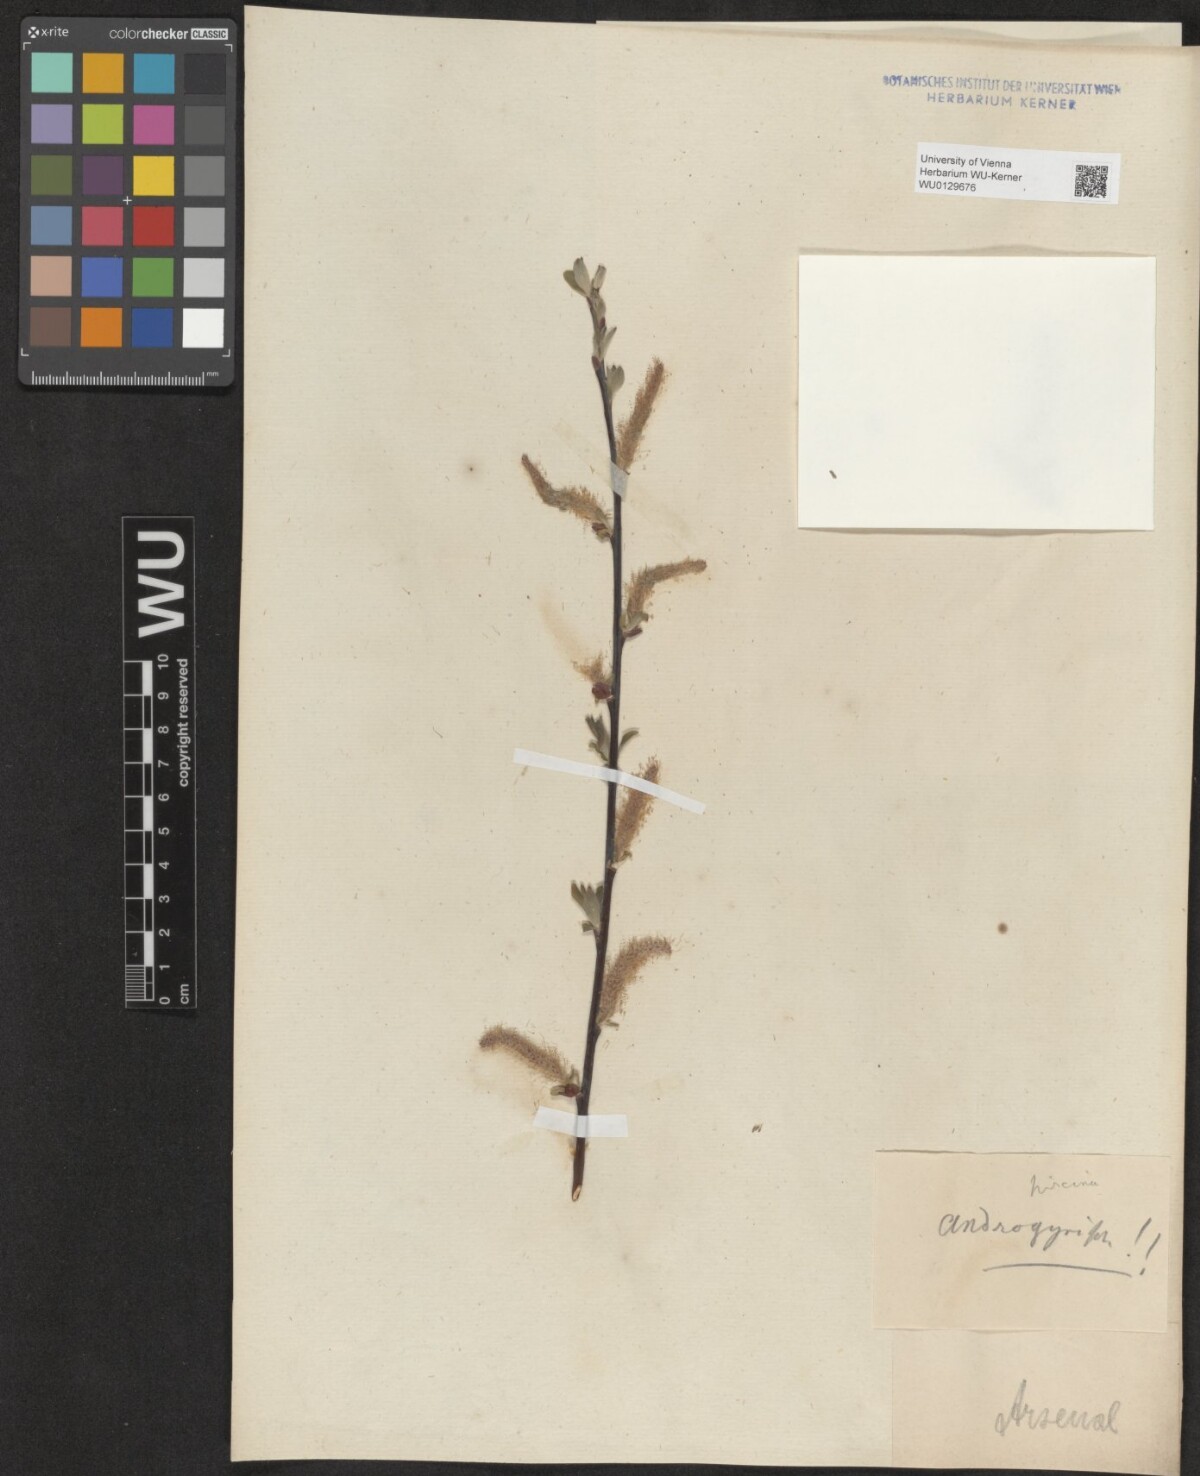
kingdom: Plantae
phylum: Tracheophyta
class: Magnoliopsida
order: Malpighiales
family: Salicaceae
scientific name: Salicaceae
